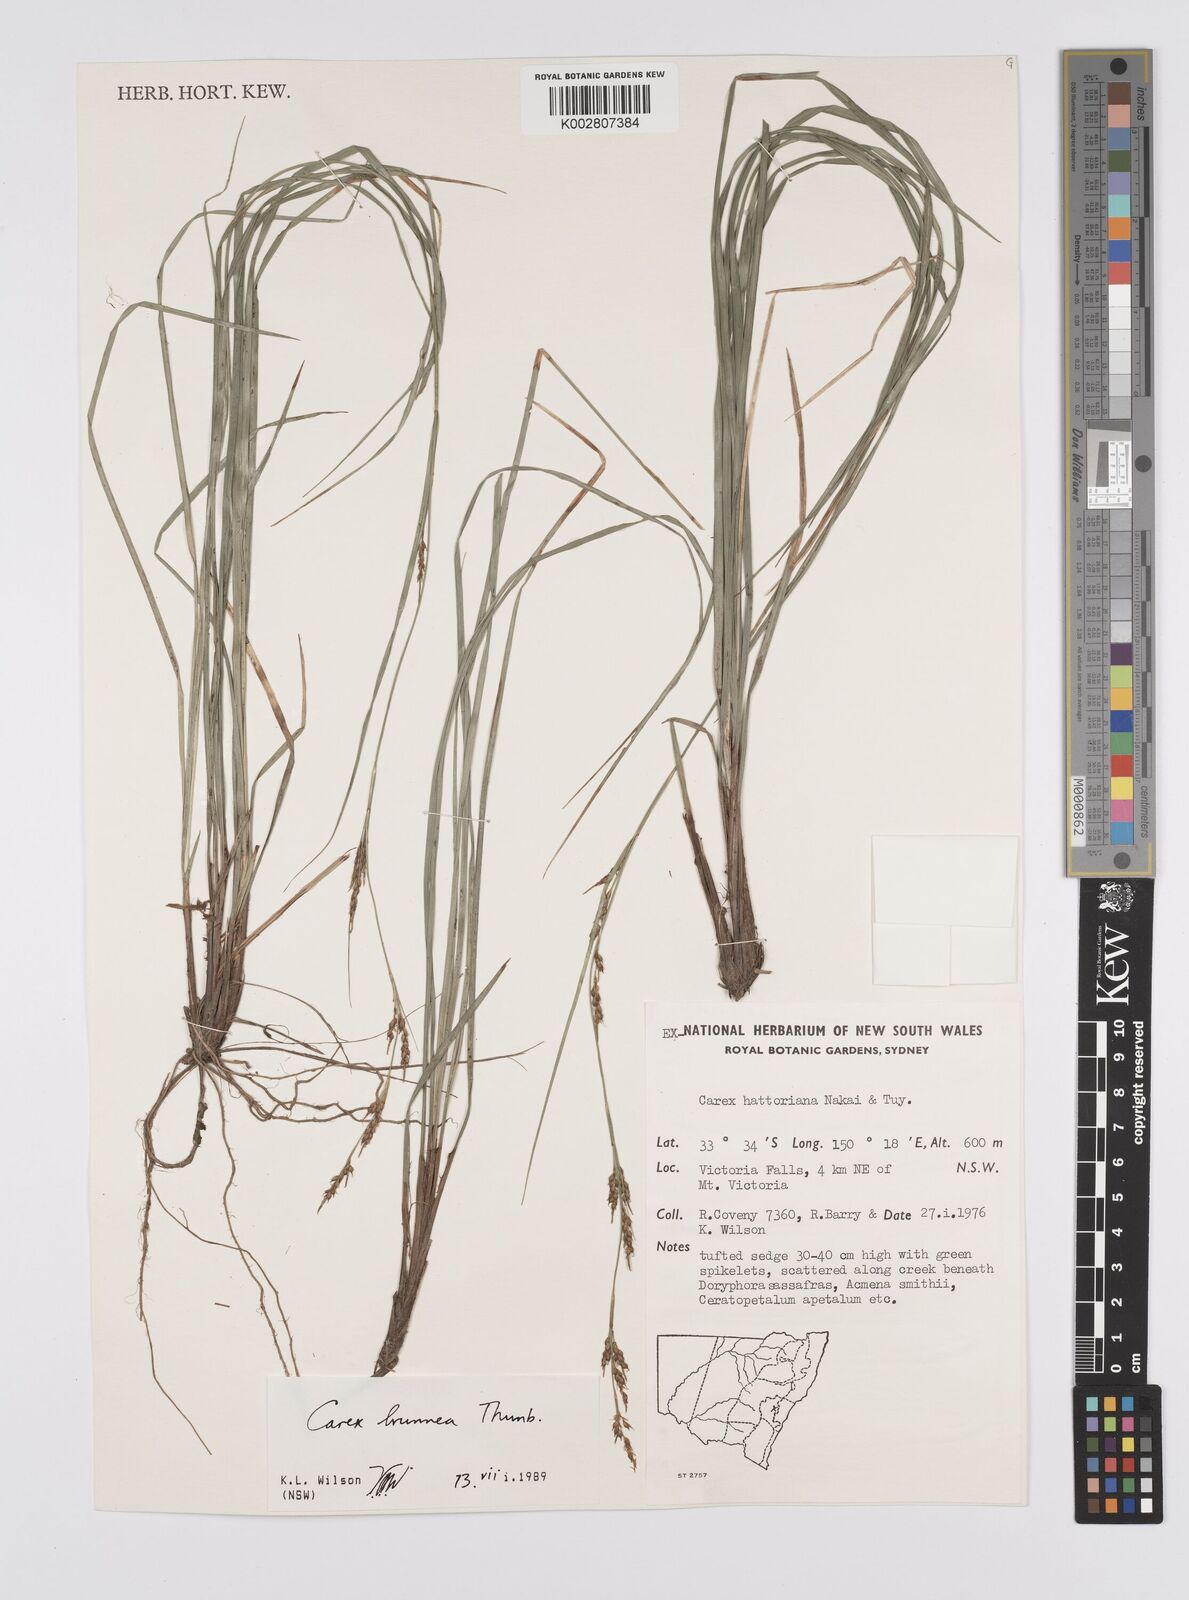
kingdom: Plantae
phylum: Tracheophyta
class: Liliopsida
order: Poales
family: Cyperaceae
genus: Carex
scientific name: Carex brunnea
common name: Greater brown sedge
